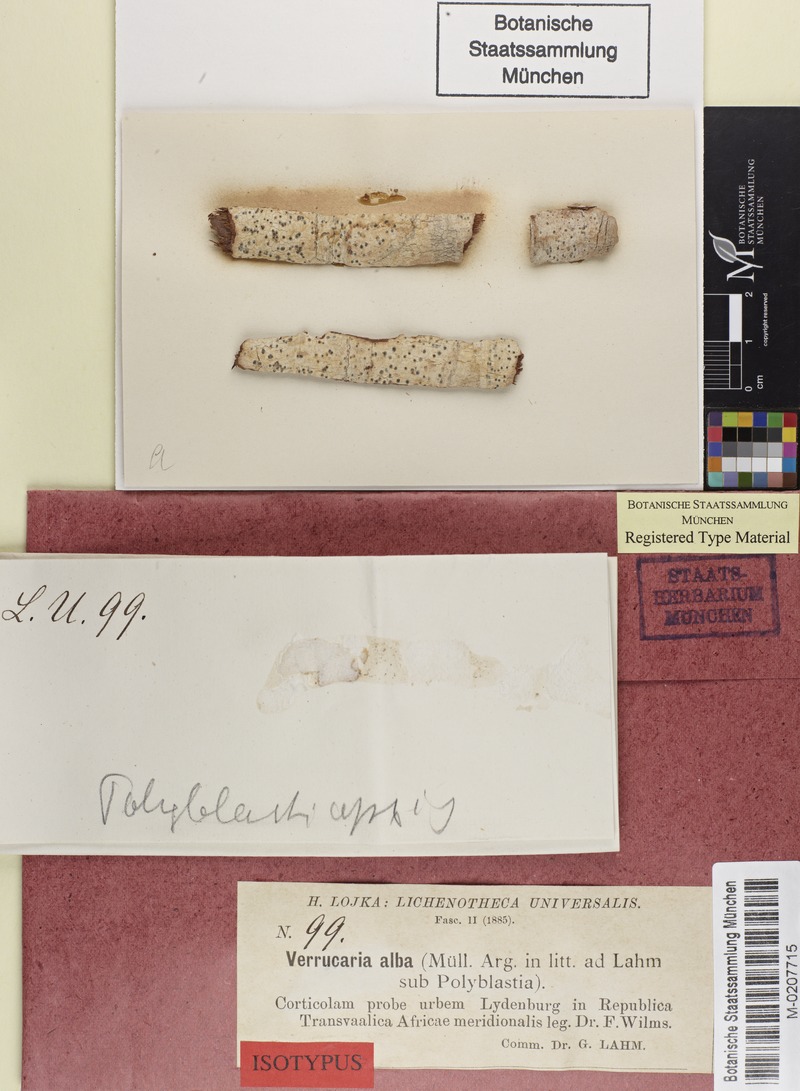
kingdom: Fungi
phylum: Ascomycota
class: Lecanoromycetes
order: Ostropales
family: Thelenellaceae
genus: Polyblastiopsis
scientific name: Polyblastiopsis alba
